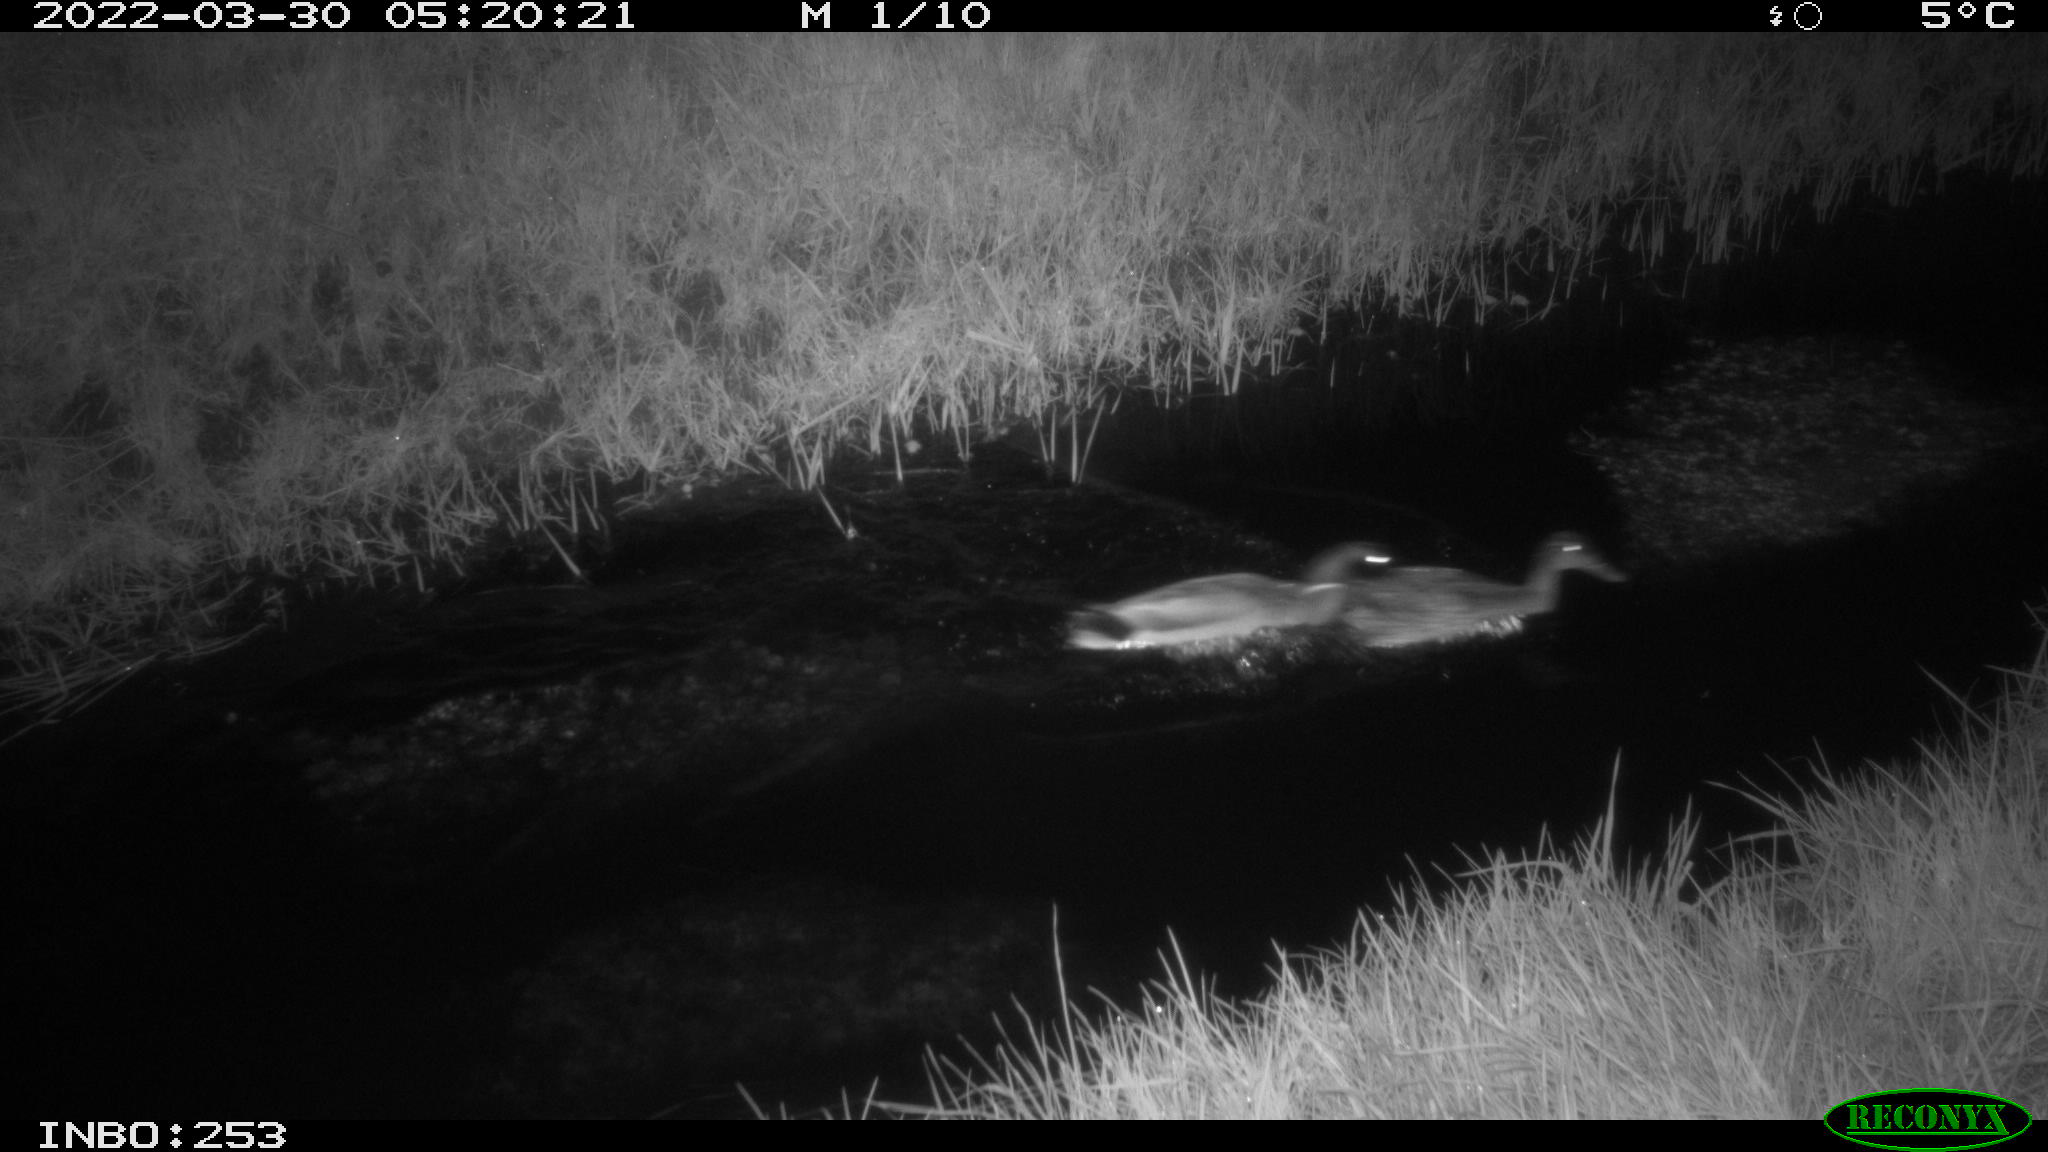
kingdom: Animalia
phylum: Chordata
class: Aves
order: Anseriformes
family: Anatidae
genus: Anas
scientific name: Anas platyrhynchos
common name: Mallard
